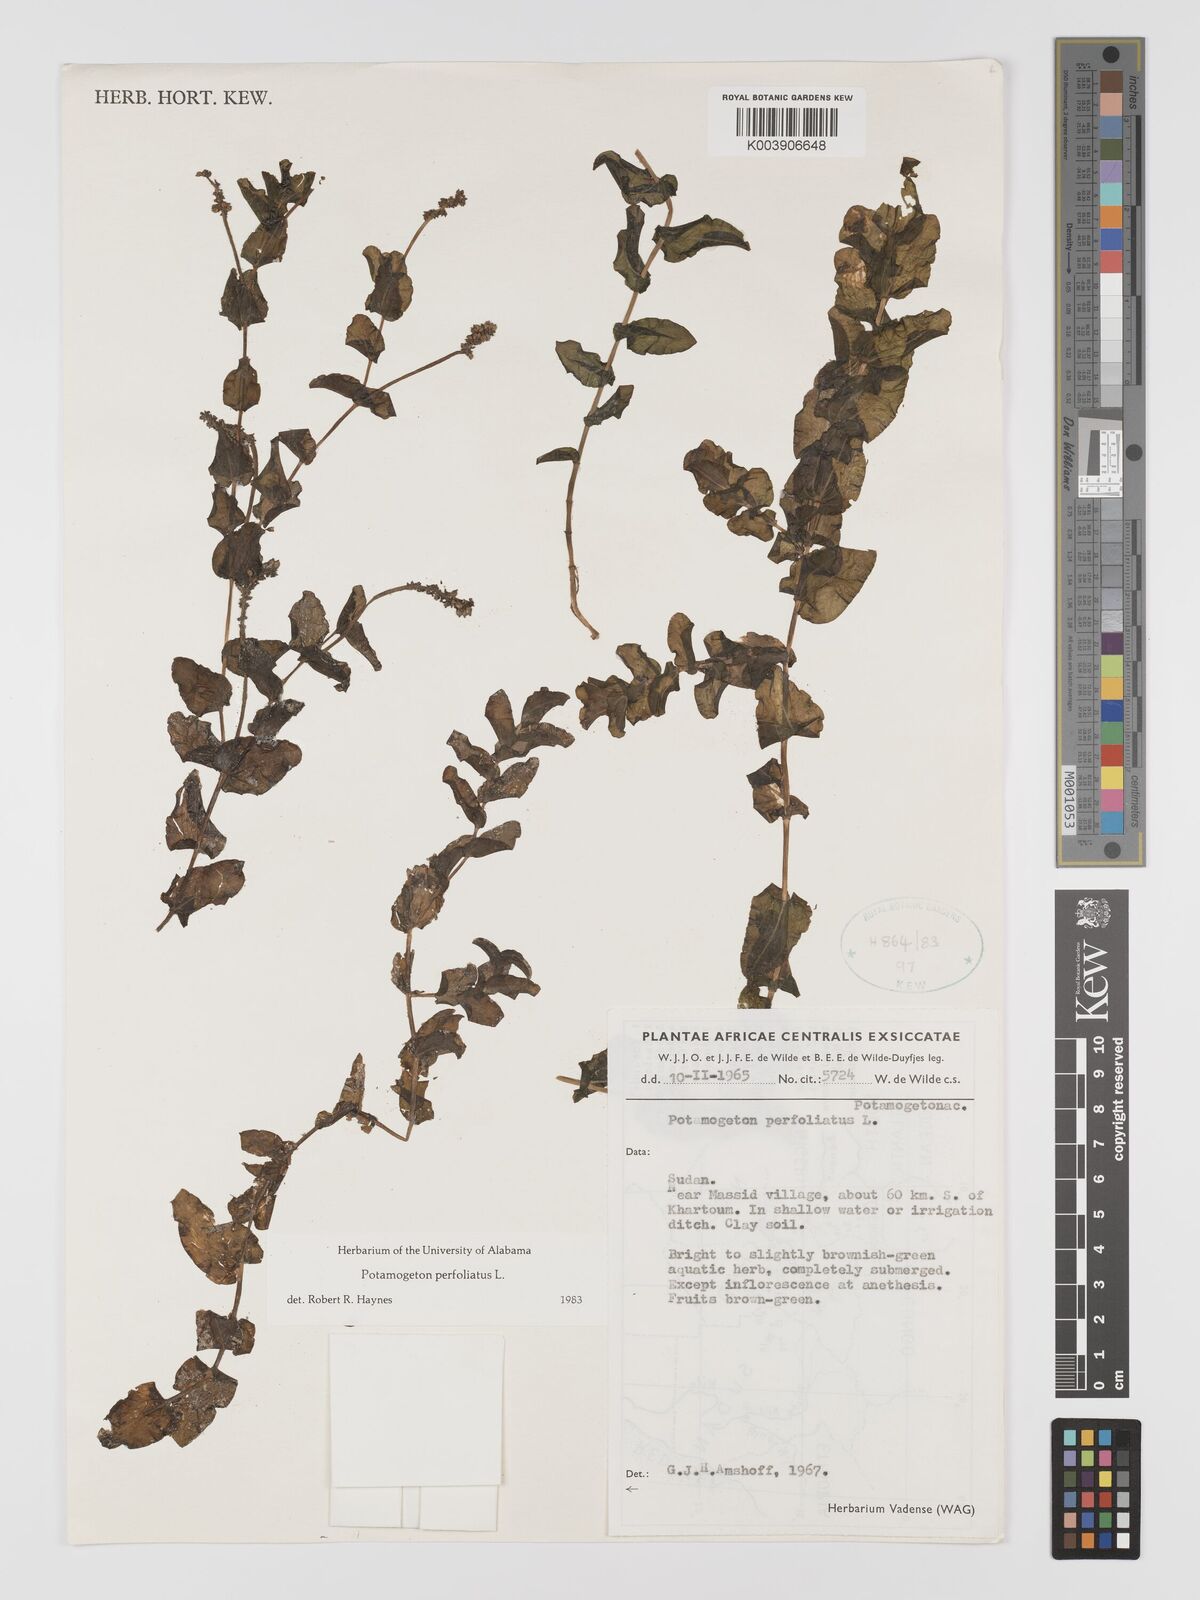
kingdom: Plantae
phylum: Tracheophyta
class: Liliopsida
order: Alismatales
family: Potamogetonaceae
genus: Potamogeton
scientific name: Potamogeton perfoliatus
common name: Perfoliate pondweed
